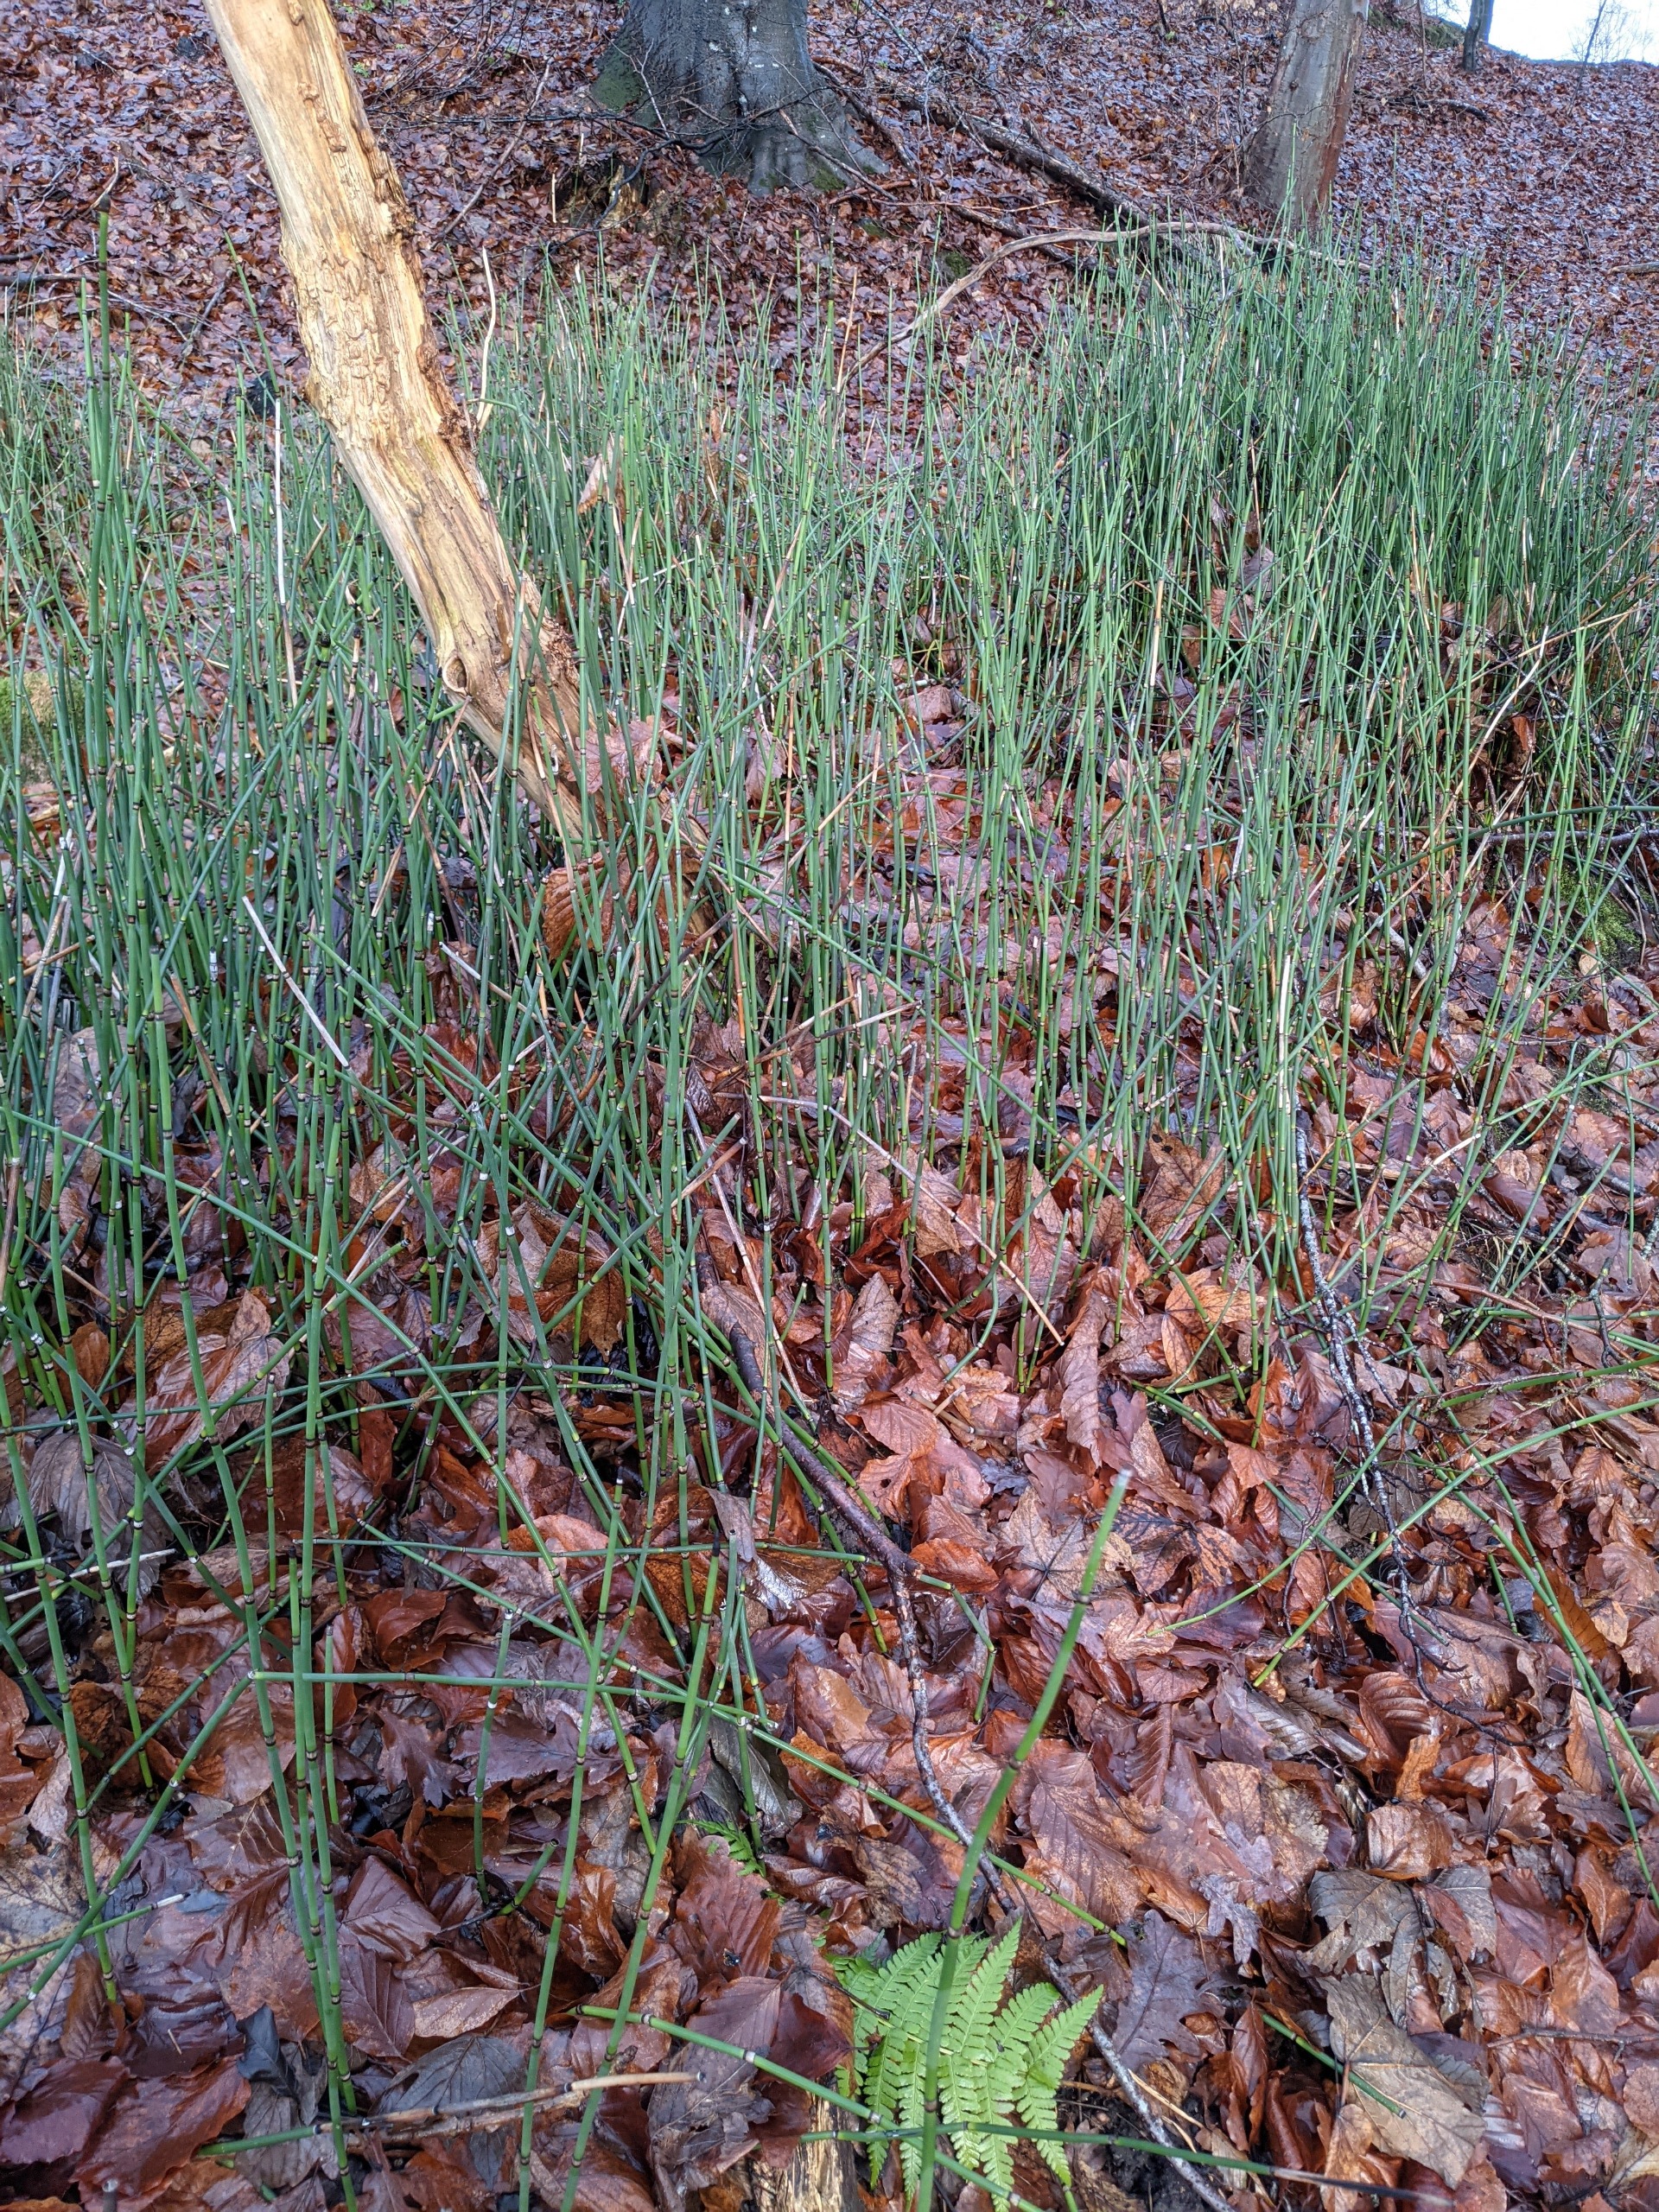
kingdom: Plantae
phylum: Tracheophyta
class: Polypodiopsida
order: Equisetales
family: Equisetaceae
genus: Equisetum
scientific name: Equisetum hyemale
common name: Skavgræs
